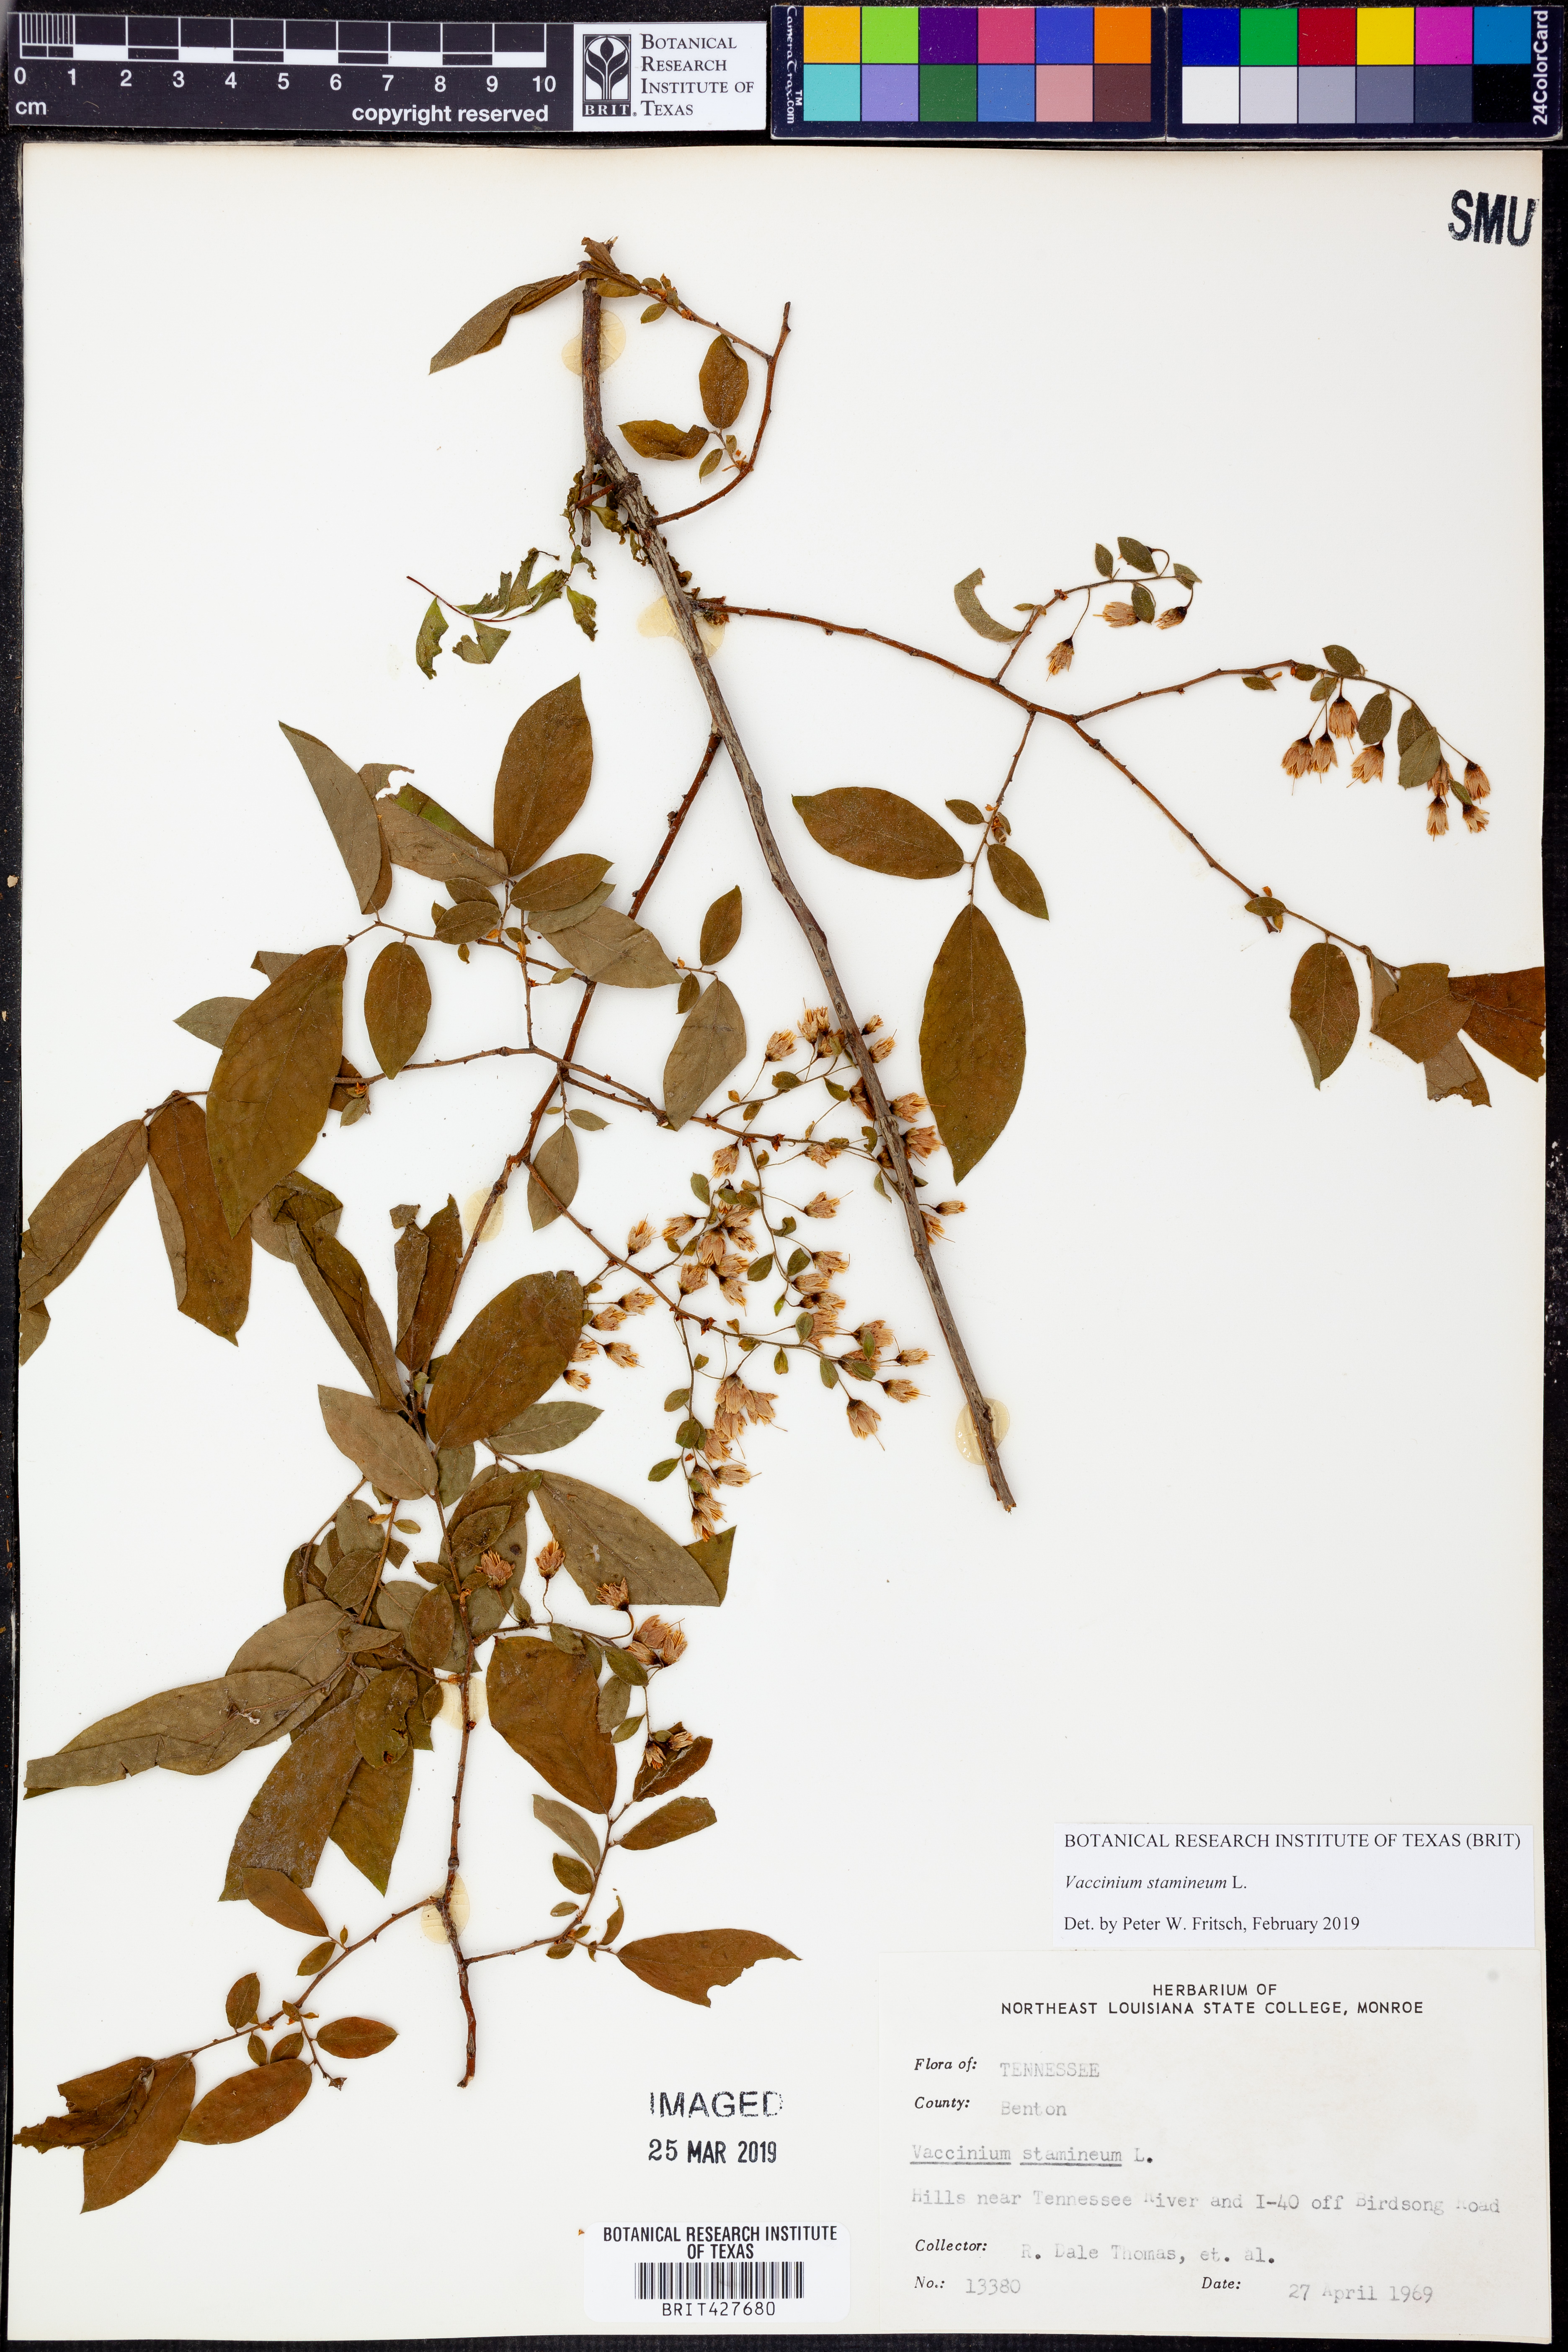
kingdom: Plantae
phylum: Tracheophyta
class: Magnoliopsida
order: Ericales
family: Ericaceae
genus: Vaccinium
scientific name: Vaccinium stamineum
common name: Deerberry
